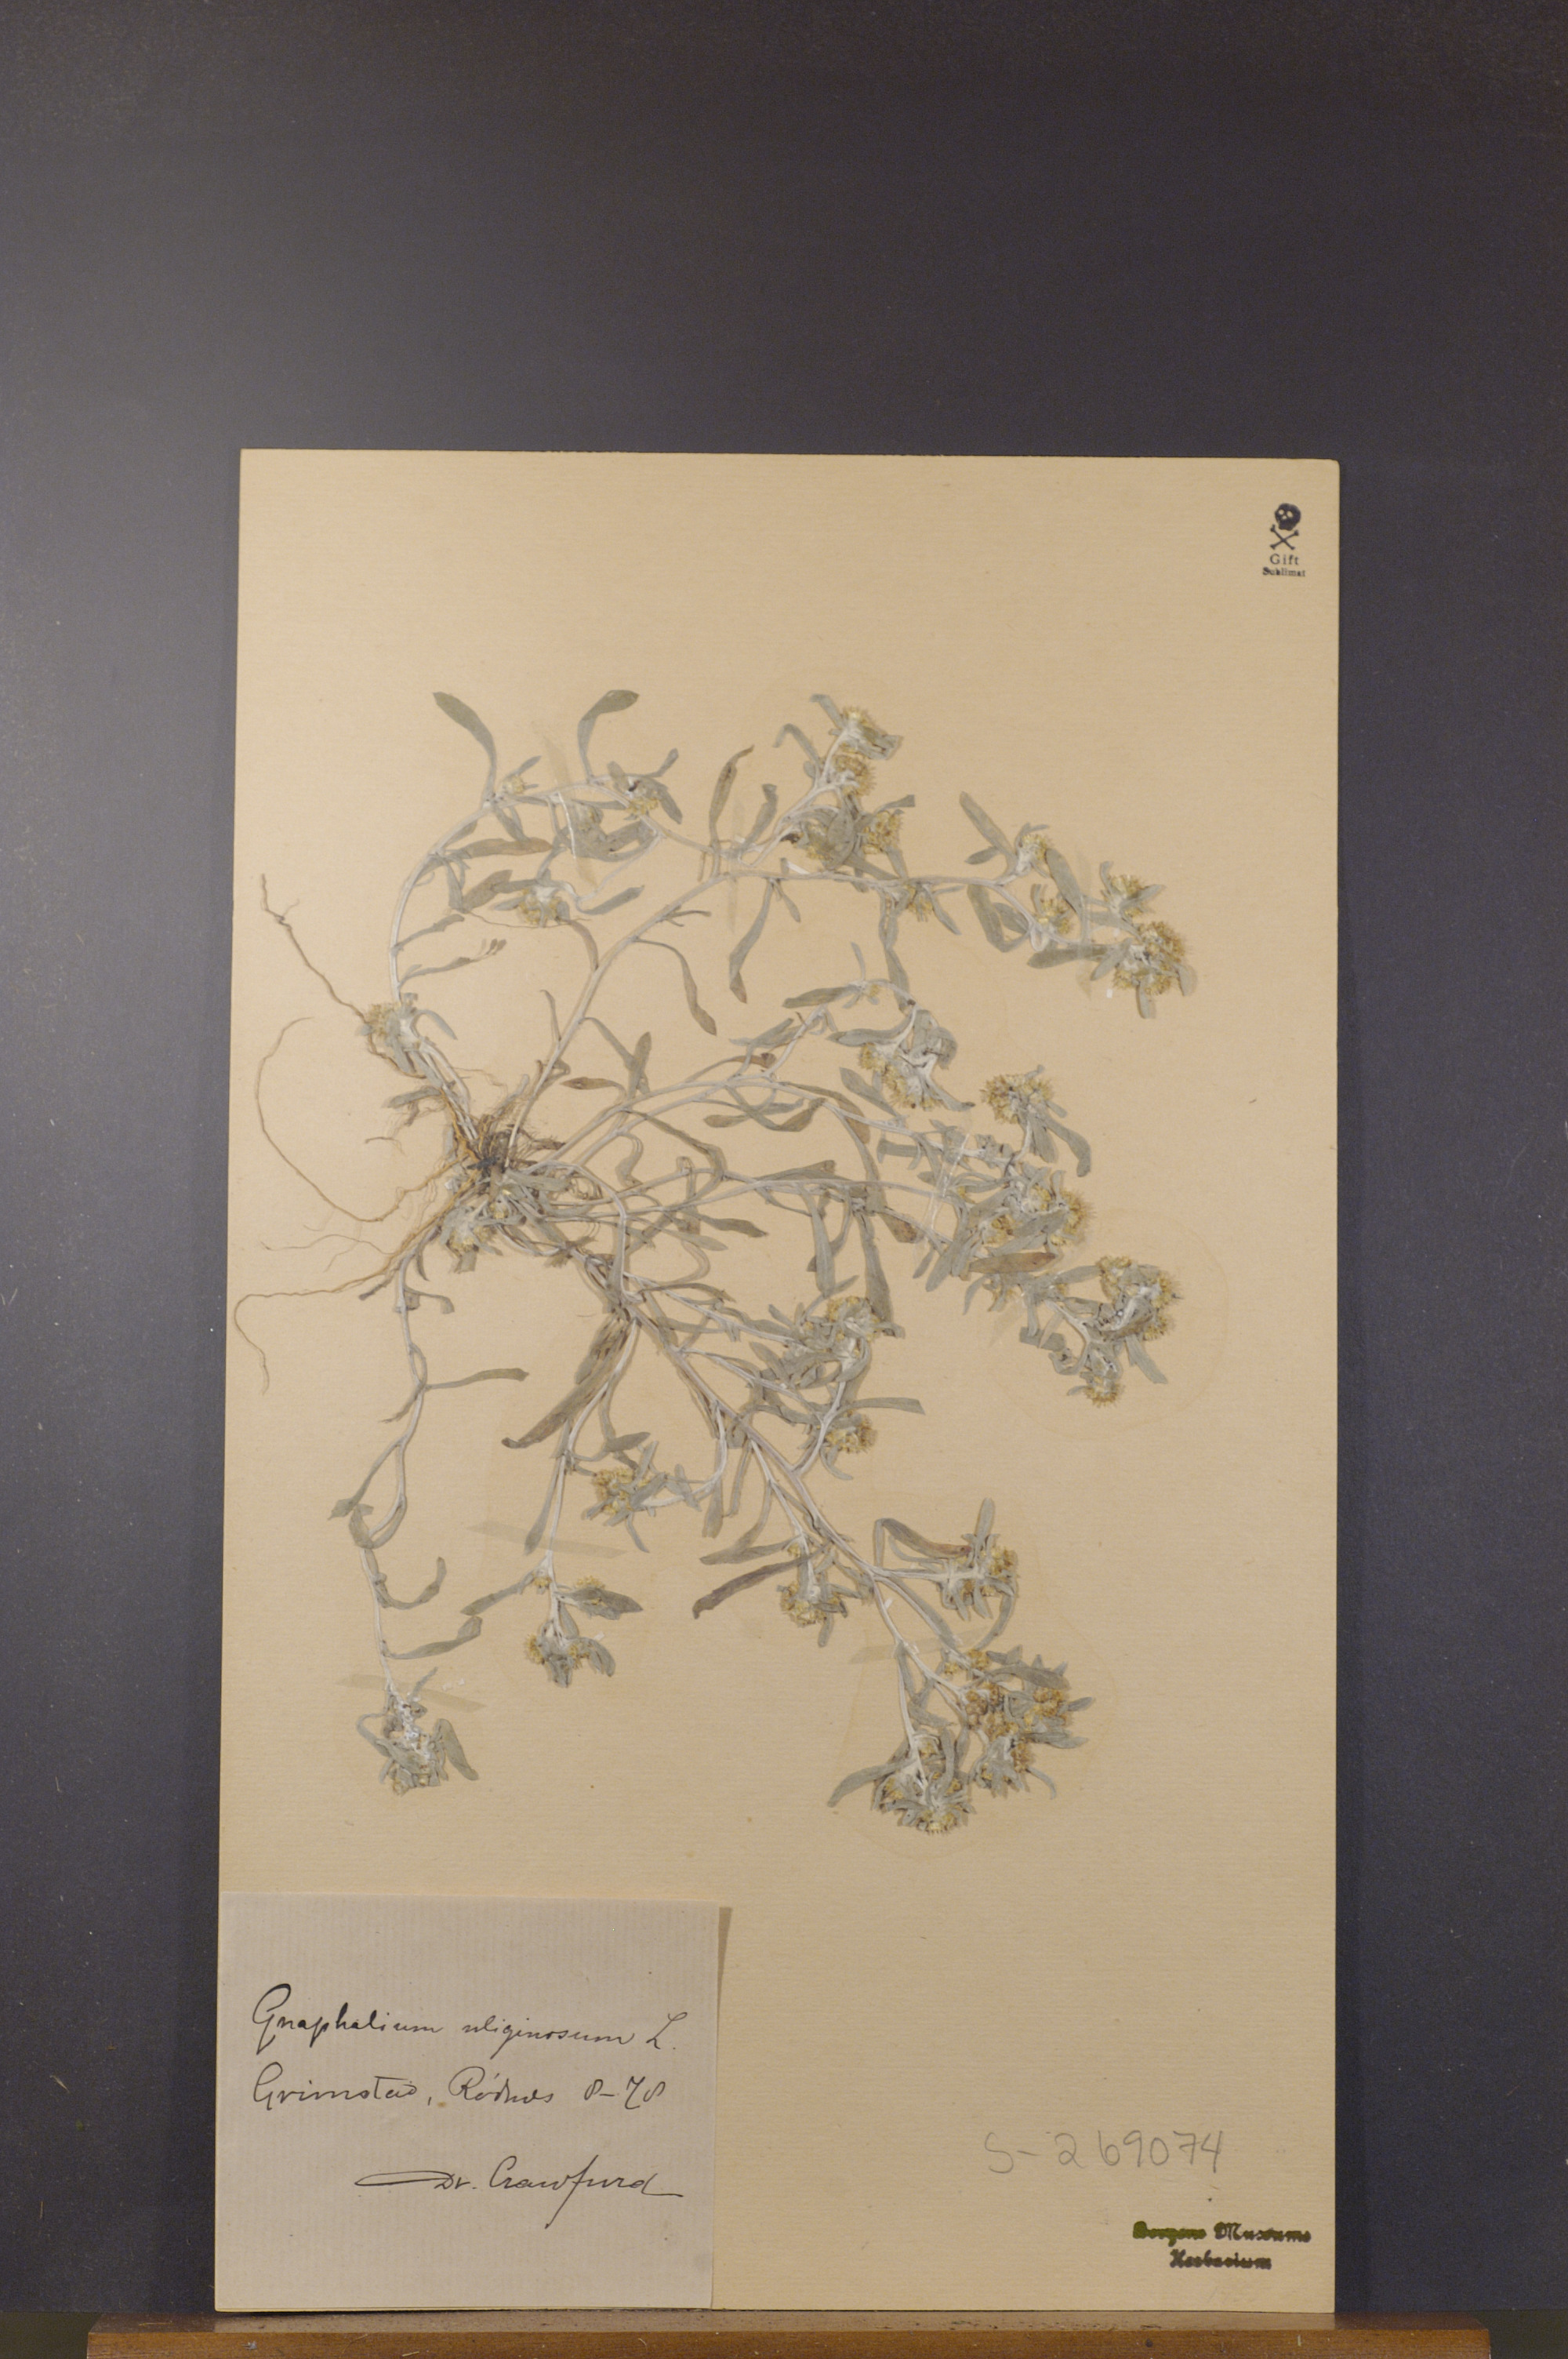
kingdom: Plantae
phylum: Tracheophyta
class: Magnoliopsida
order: Asterales
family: Asteraceae
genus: Gnaphalium
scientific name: Gnaphalium uliginosum
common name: Marsh cudweed
